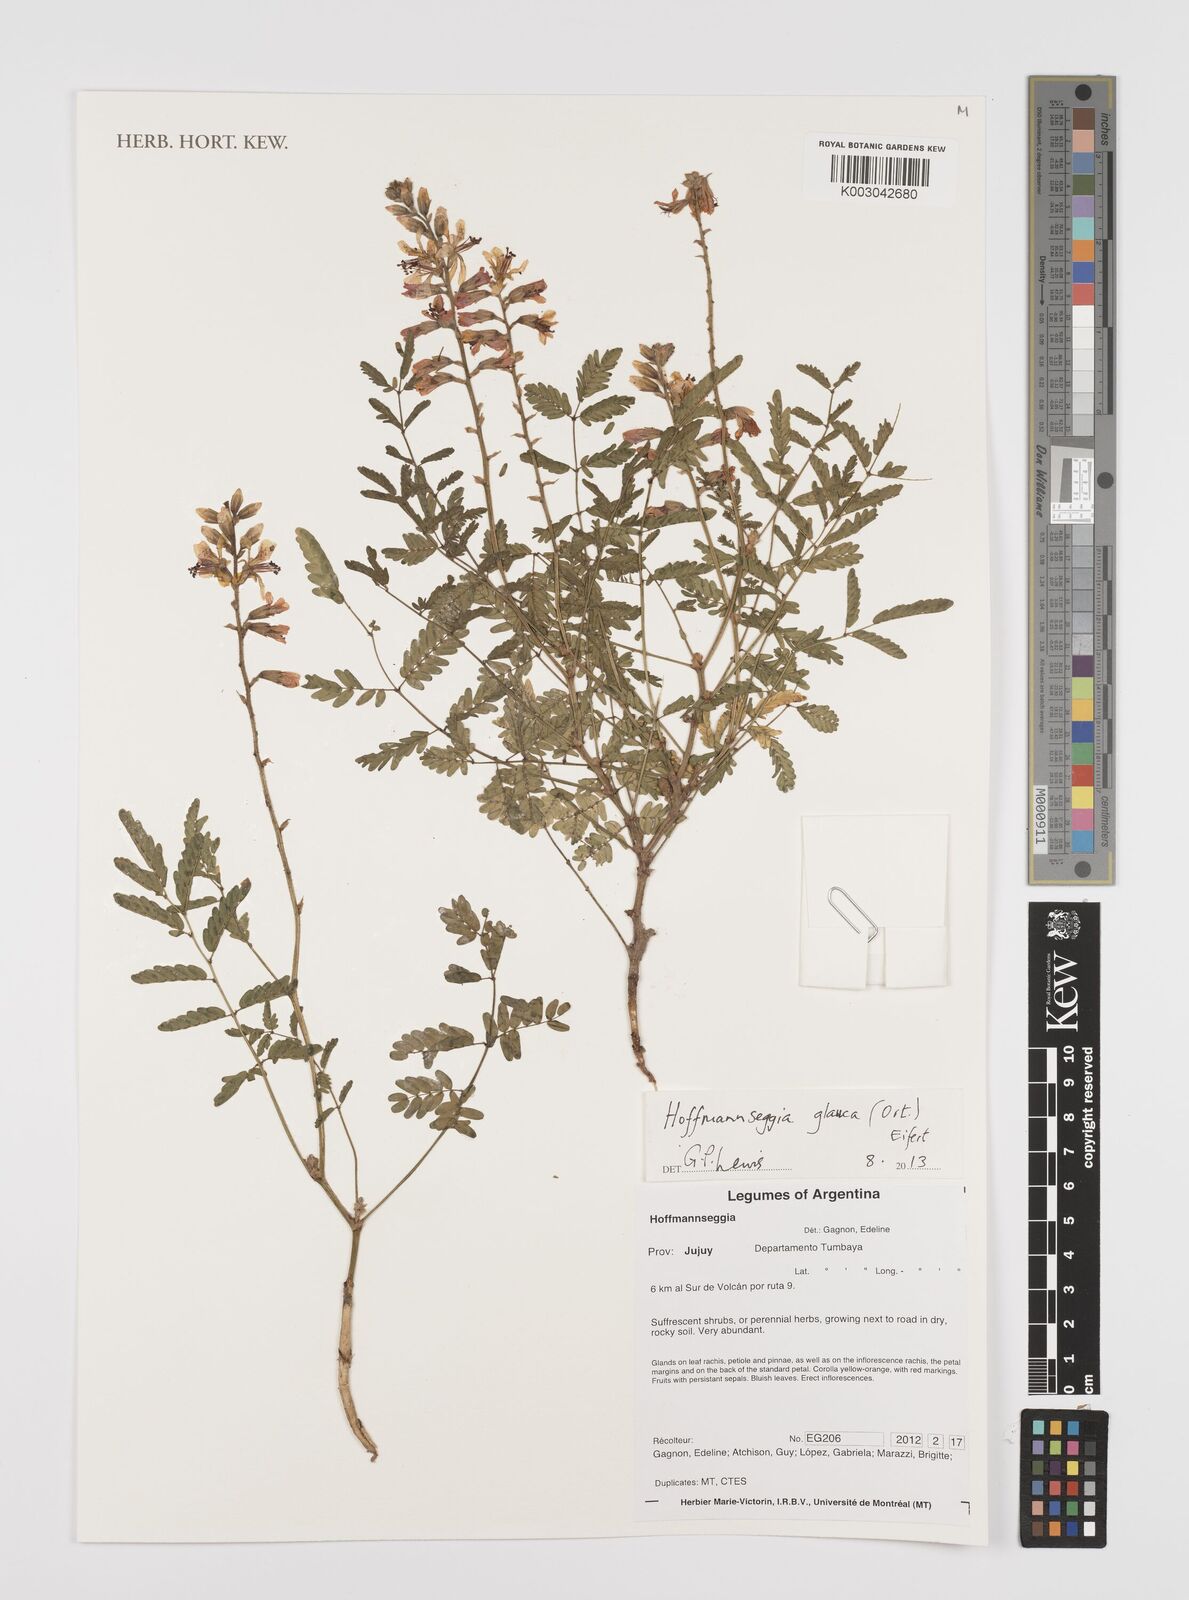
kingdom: Plantae
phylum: Tracheophyta
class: Magnoliopsida
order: Fabales
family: Fabaceae
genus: Hoffmannseggia
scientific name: Hoffmannseggia glauca
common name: Pignut
